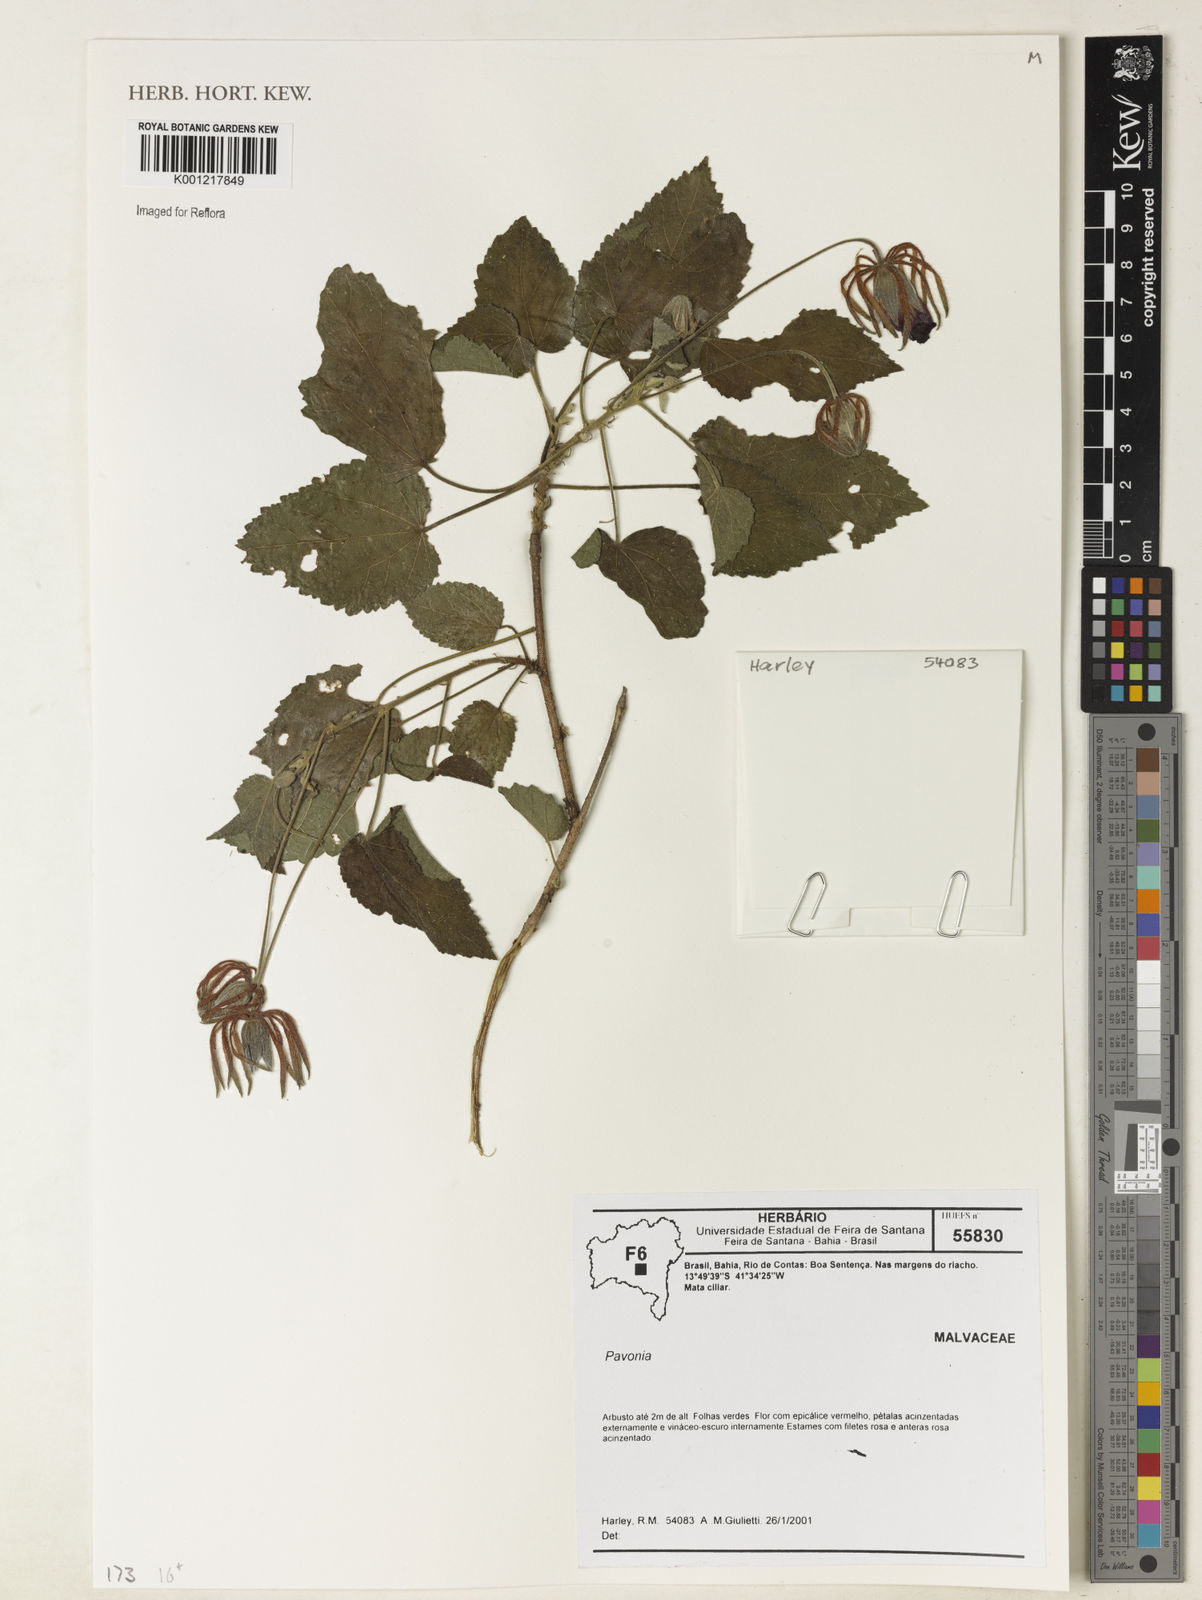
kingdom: Plantae
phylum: Tracheophyta
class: Magnoliopsida
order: Malvales
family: Malvaceae
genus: Pavonia
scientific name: Pavonia
